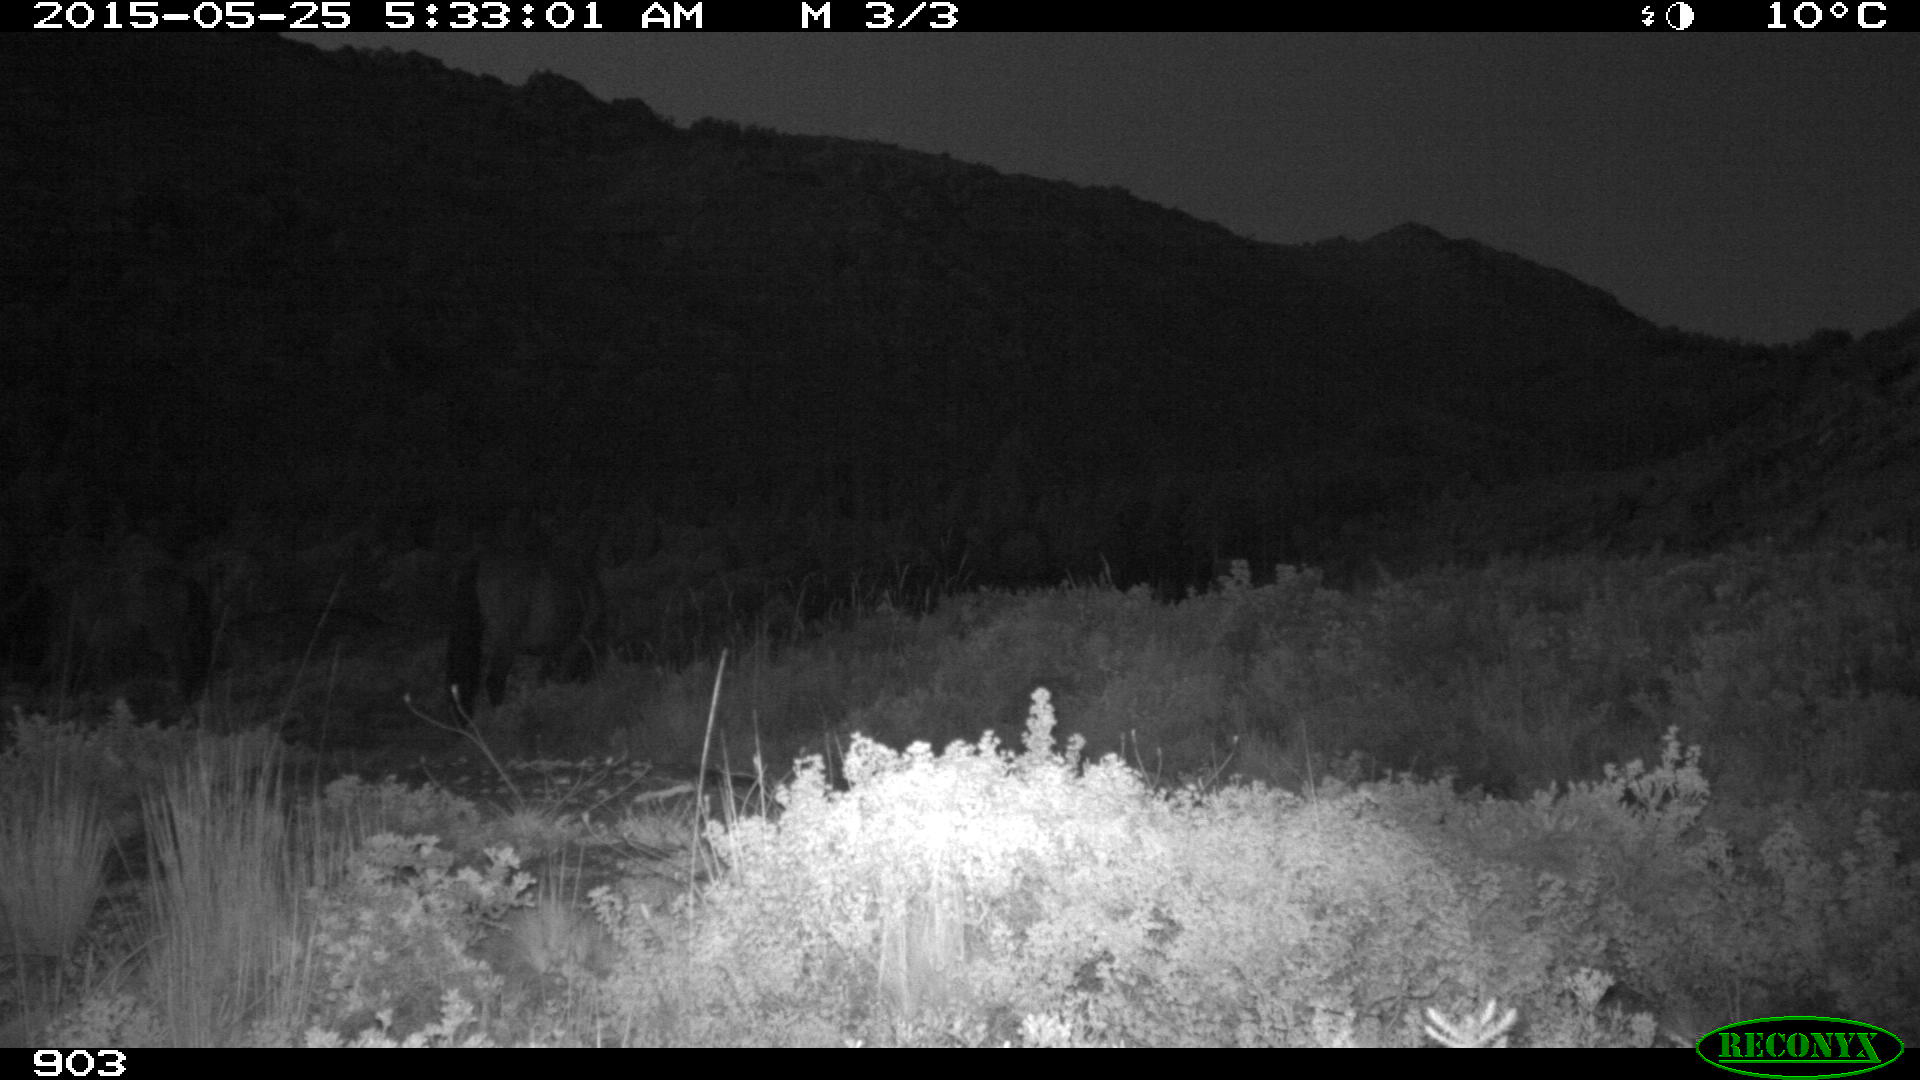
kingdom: Animalia
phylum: Chordata
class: Mammalia
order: Perissodactyla
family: Equidae
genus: Equus
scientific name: Equus caballus
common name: Horse
